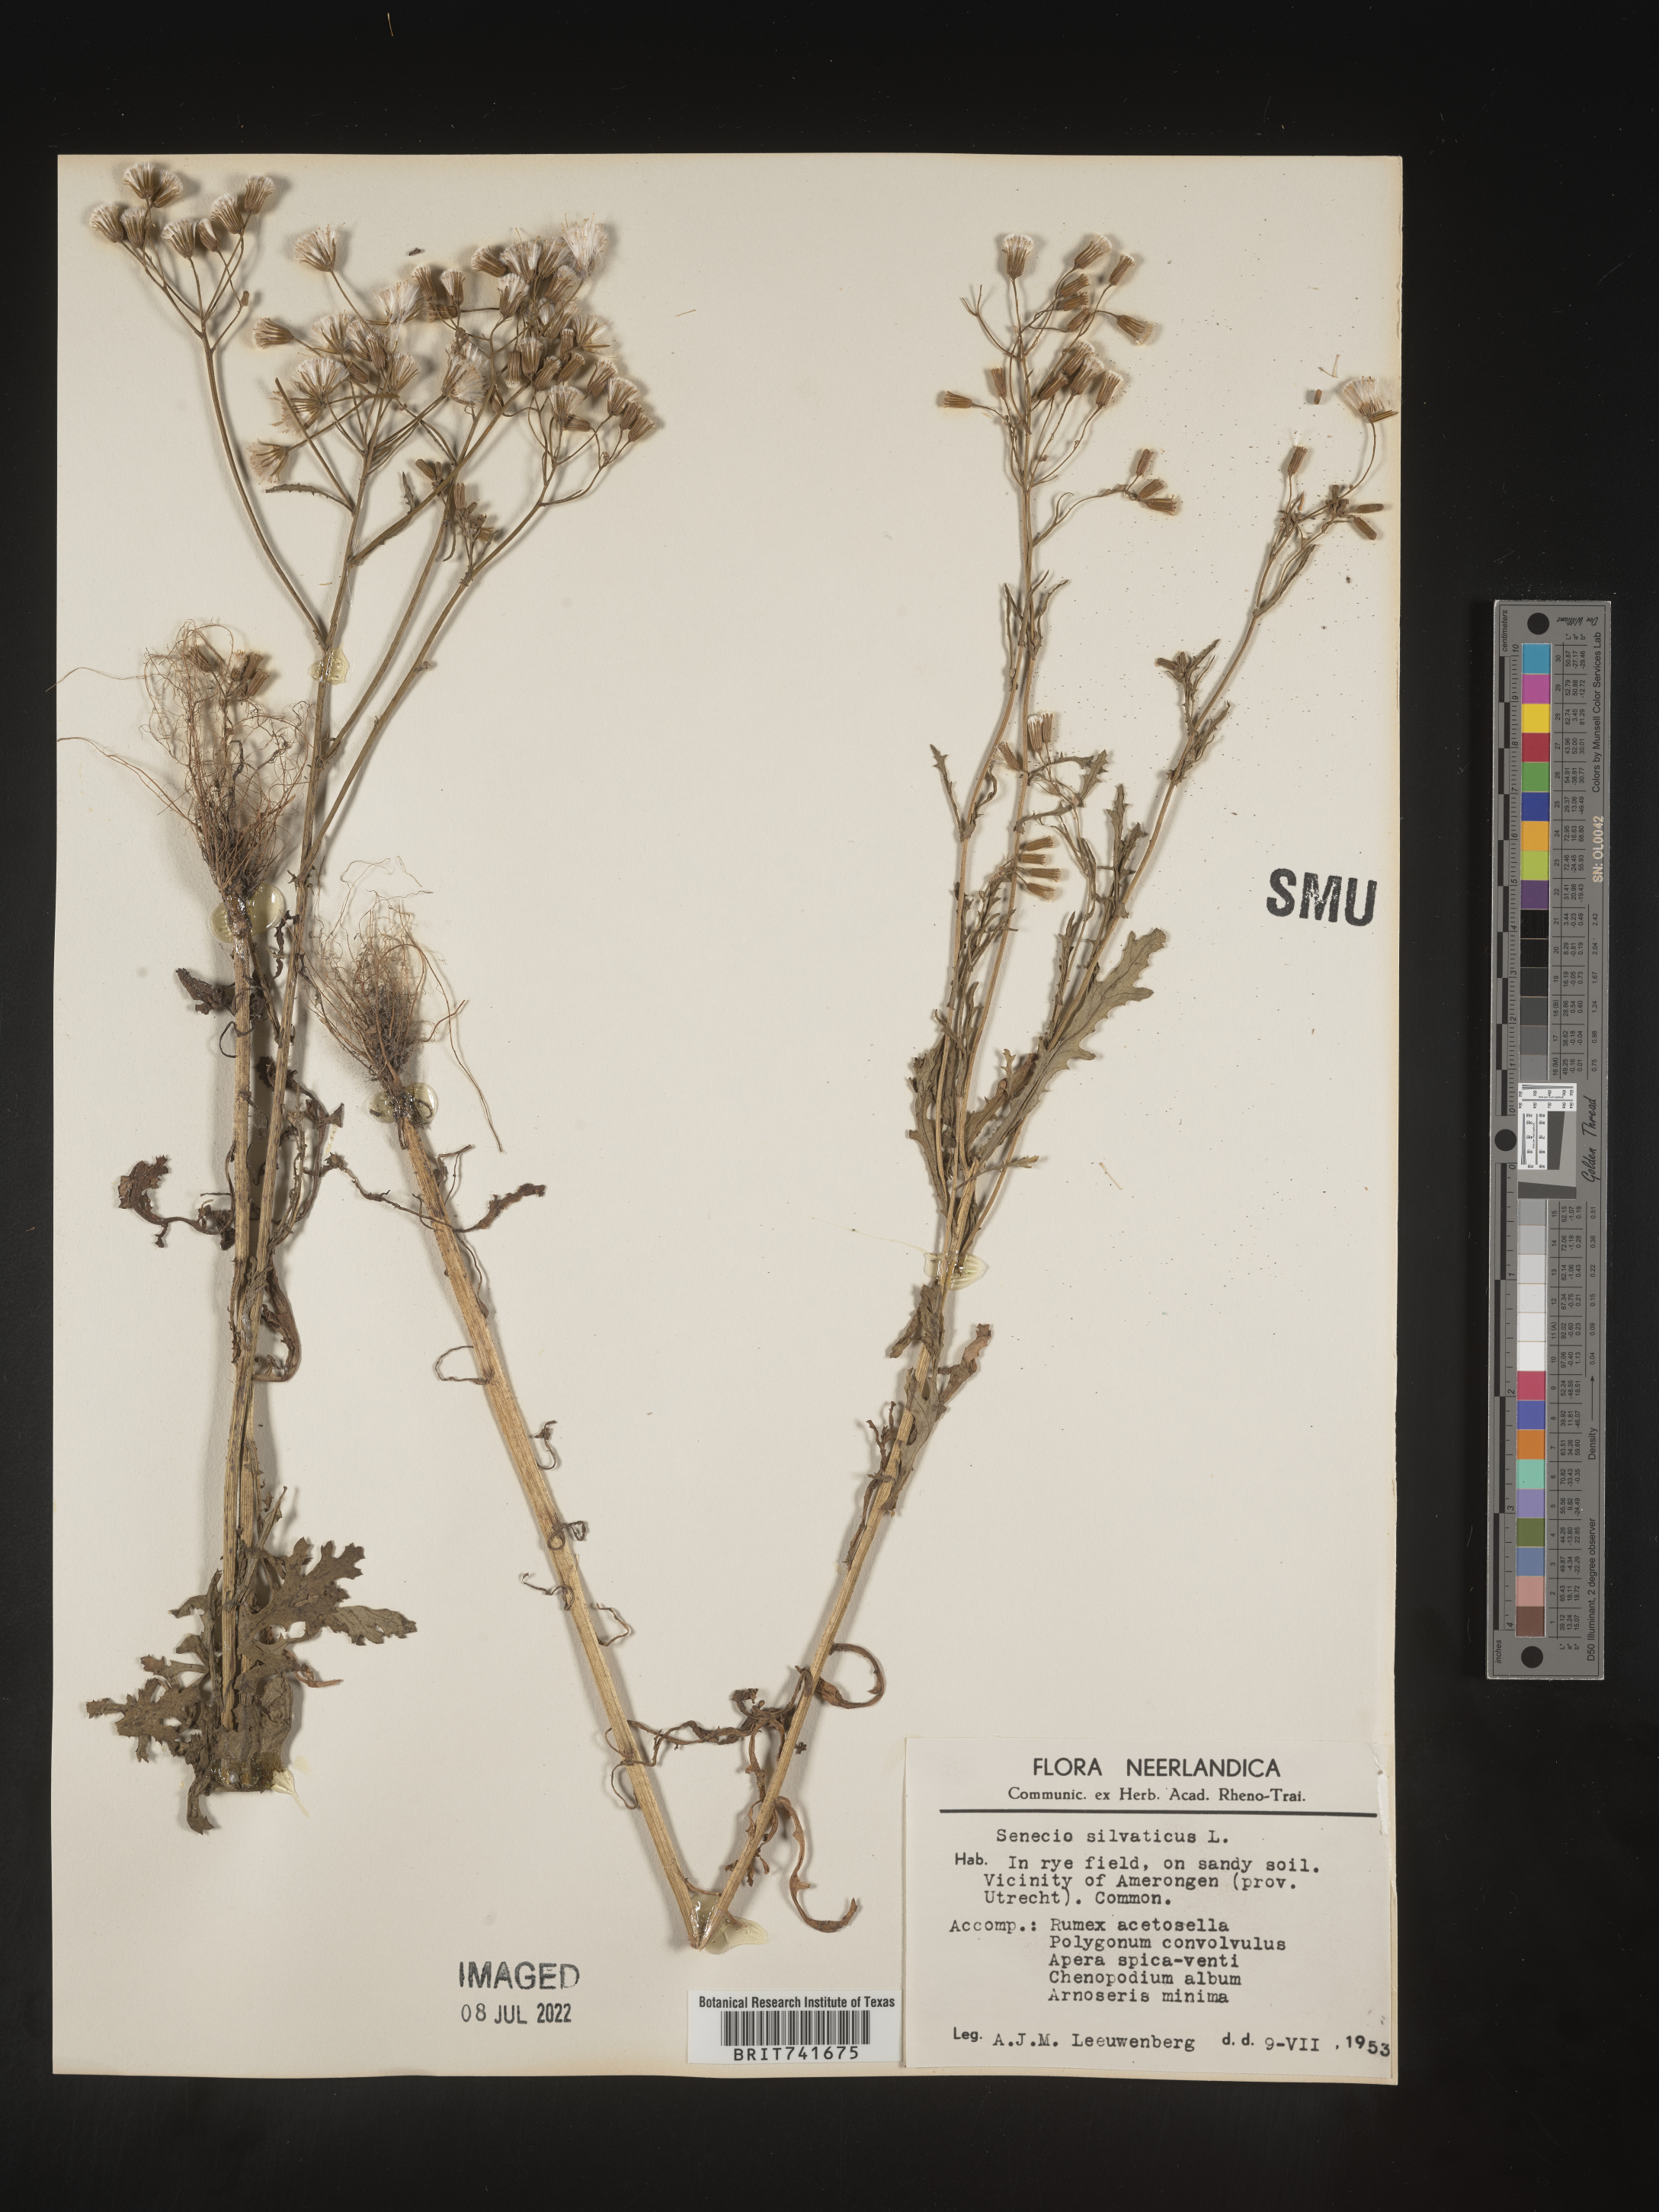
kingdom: Plantae
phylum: Tracheophyta
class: Magnoliopsida
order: Asterales
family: Asteraceae
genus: Senecio
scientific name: Senecio
